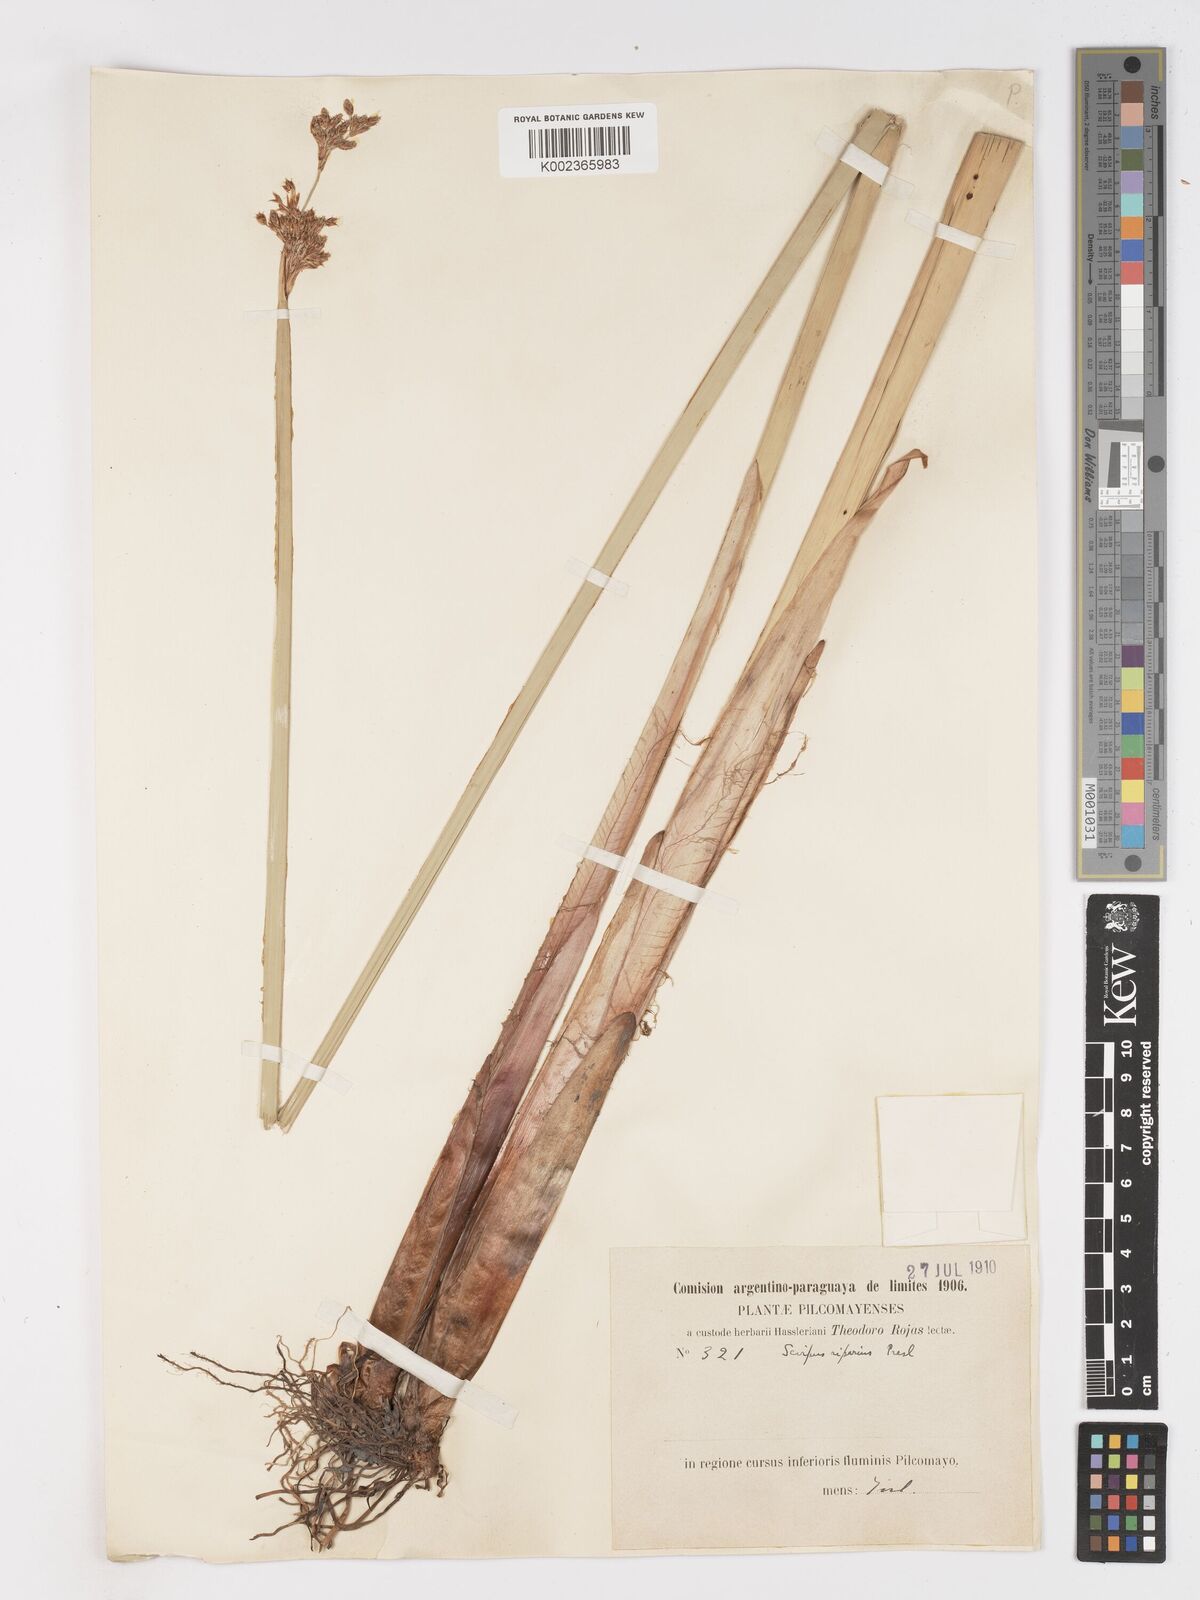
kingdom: Plantae
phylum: Tracheophyta
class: Liliopsida
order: Poales
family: Cyperaceae
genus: Schoenoplectus
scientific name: Schoenoplectus californicus
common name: California bulrush
